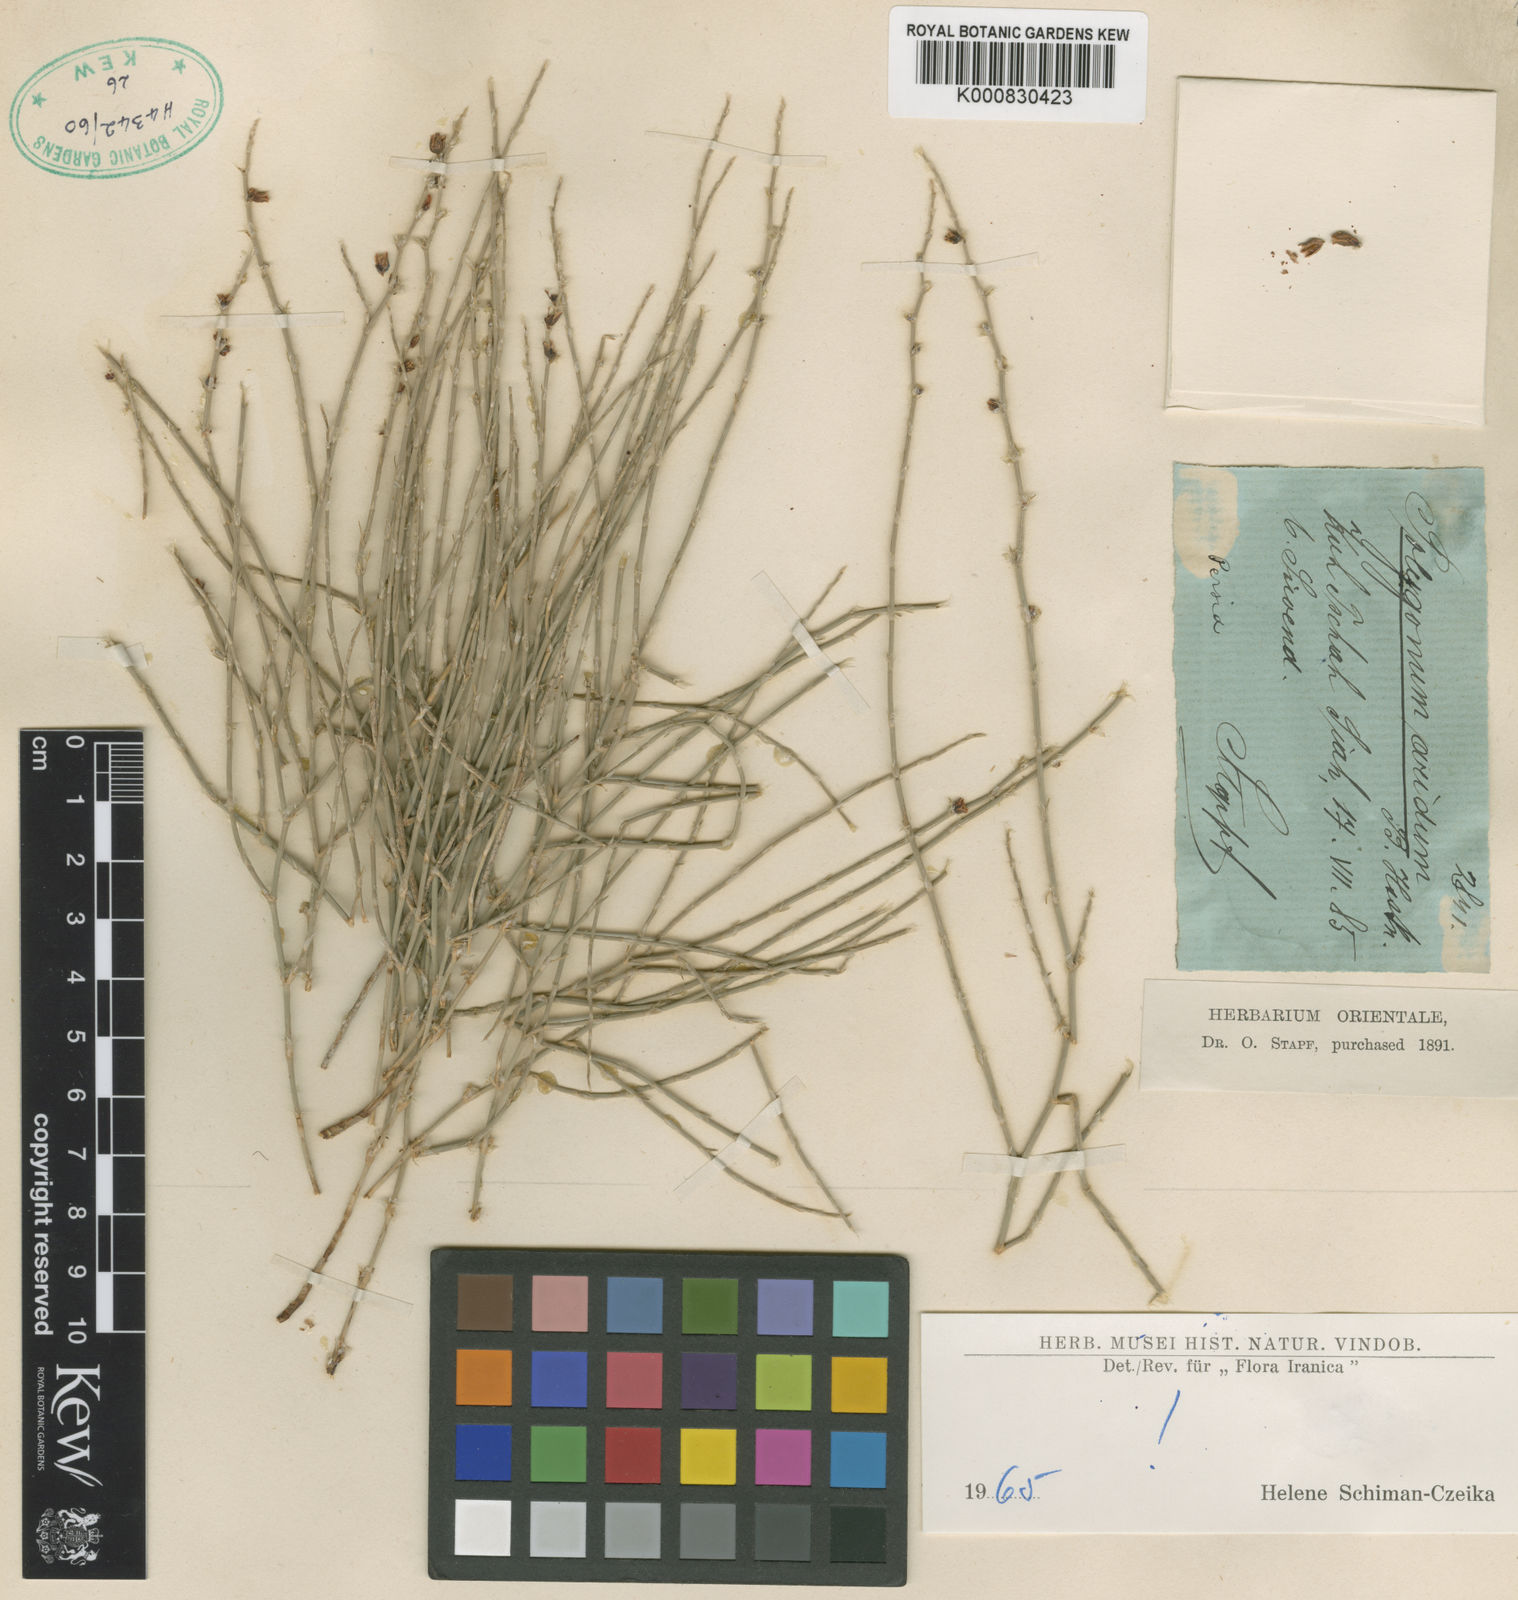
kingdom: Plantae
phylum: Tracheophyta
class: Magnoliopsida
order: Caryophyllales
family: Polygonaceae
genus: Atraphaxis
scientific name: Atraphaxis arida
